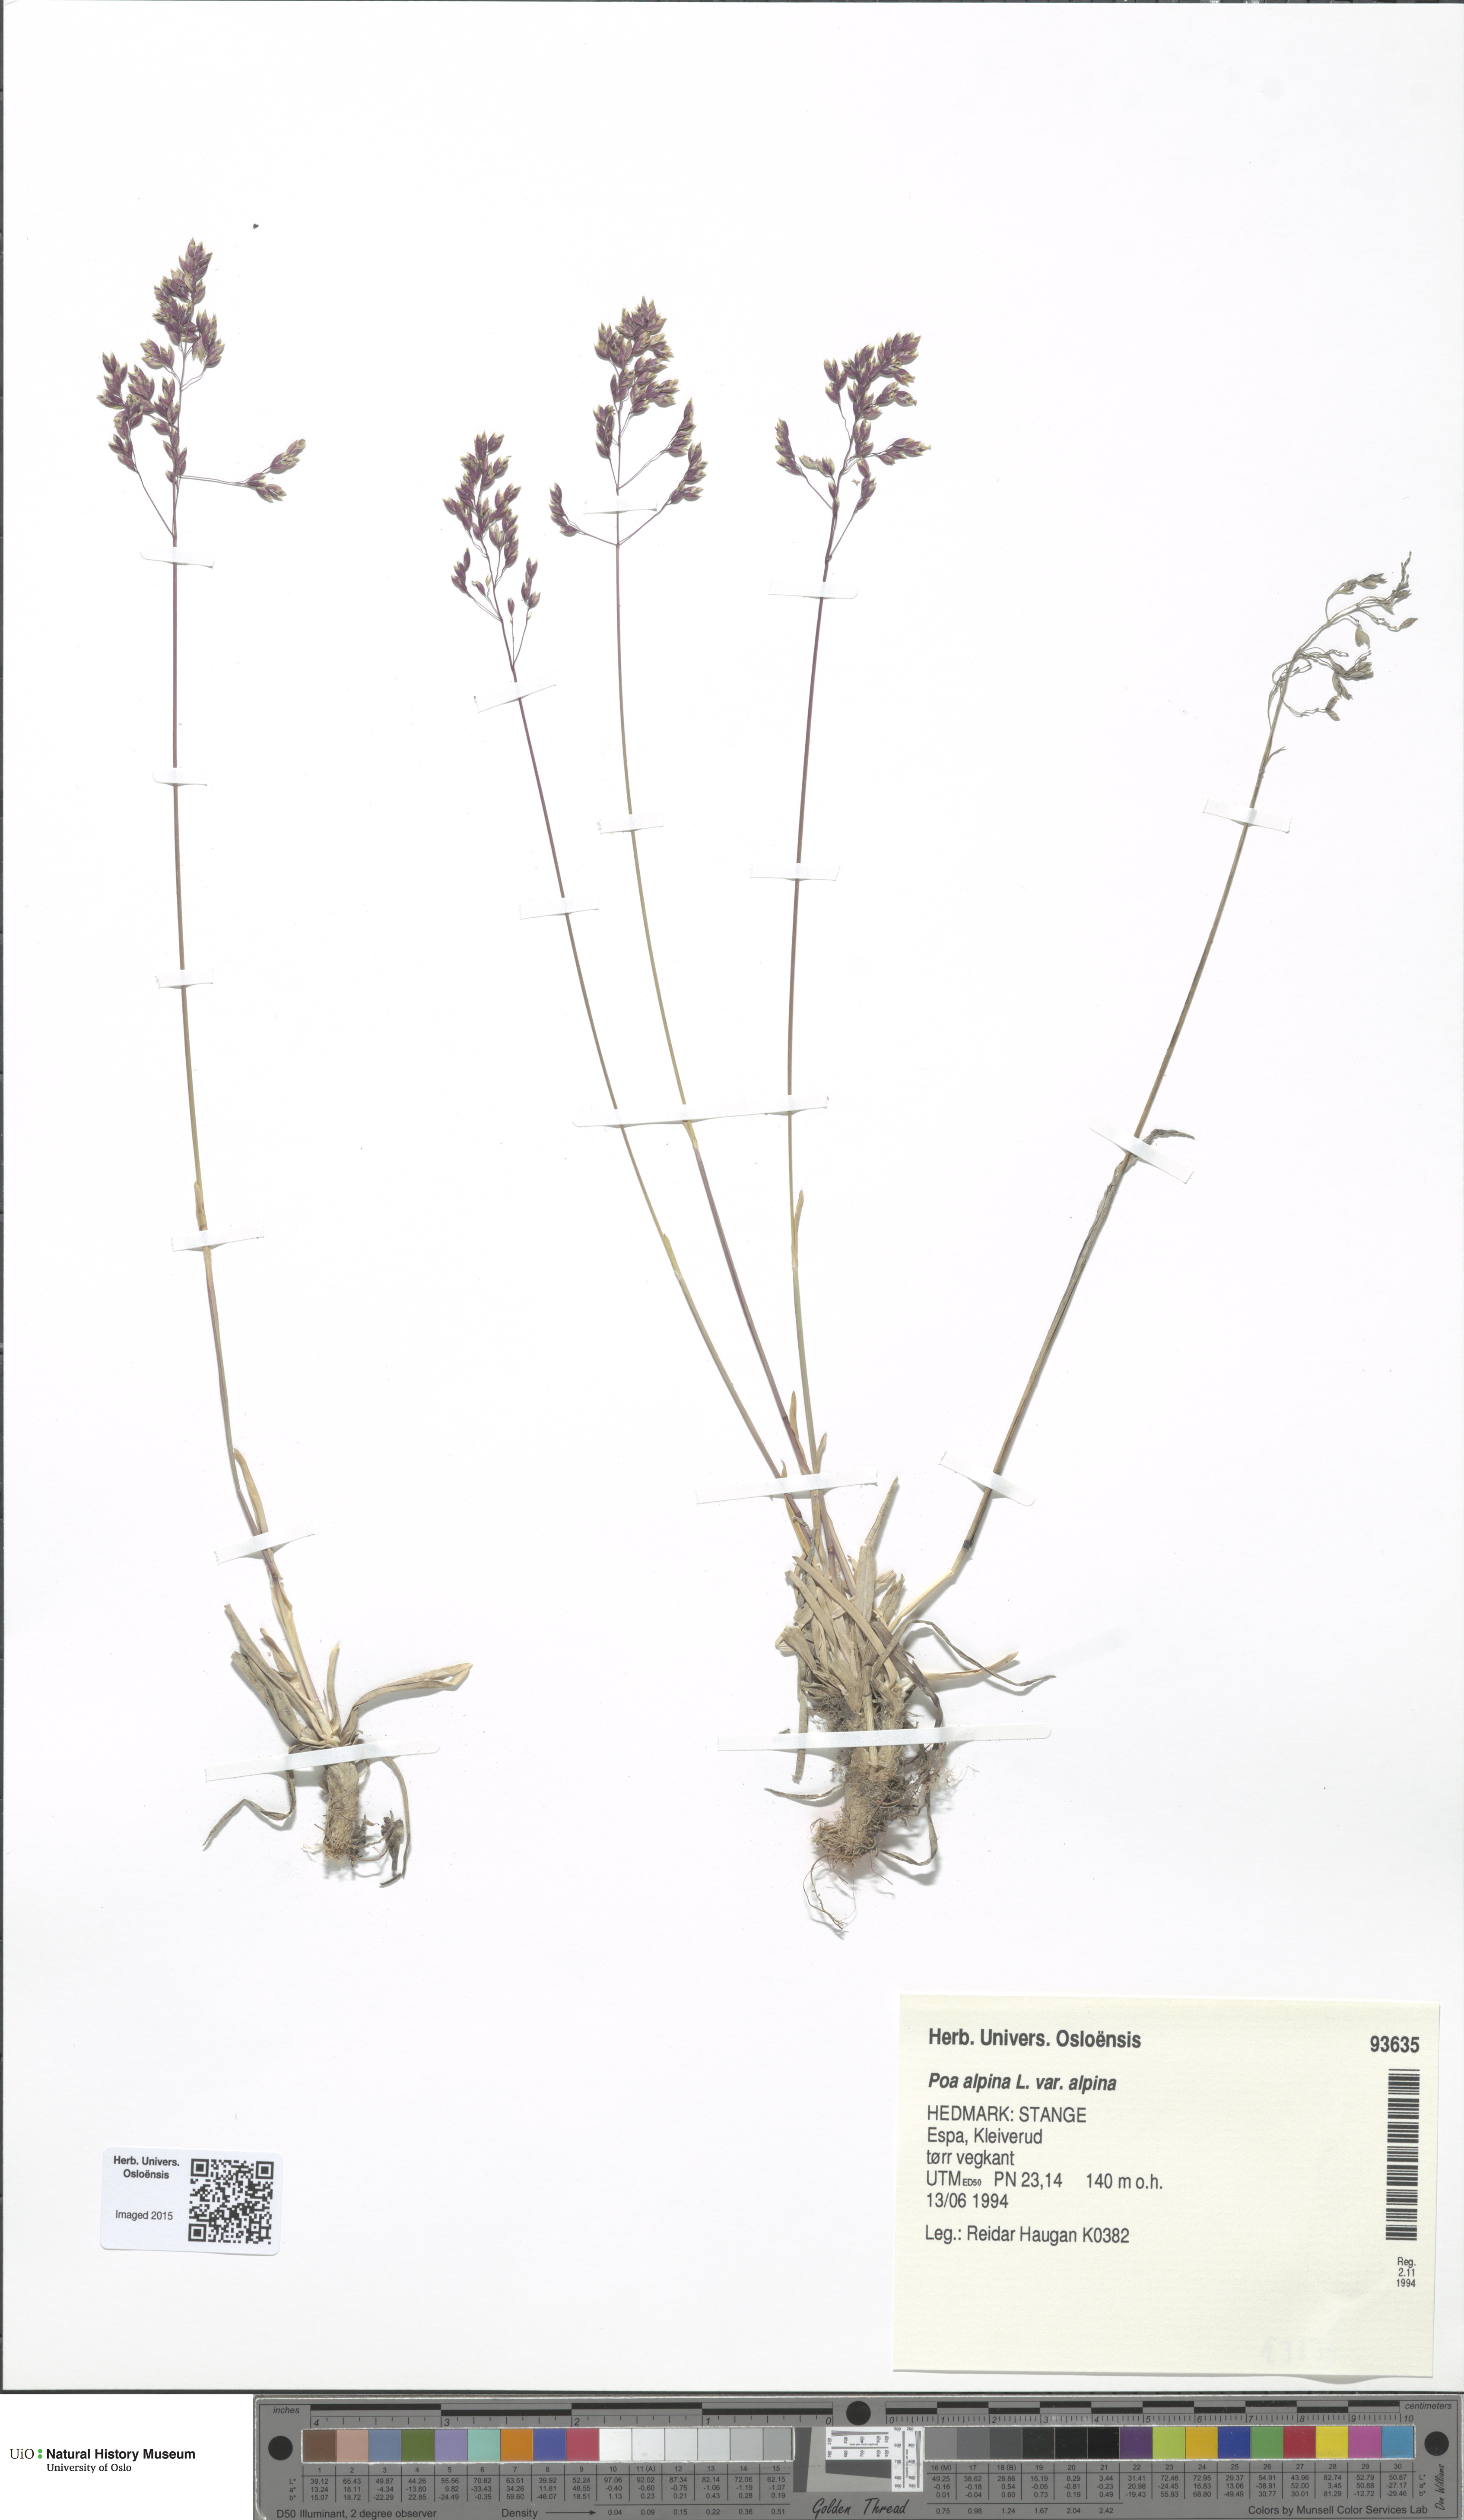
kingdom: Plantae
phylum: Tracheophyta
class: Liliopsida
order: Poales
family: Poaceae
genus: Poa
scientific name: Poa alpina
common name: Alpine bluegrass
